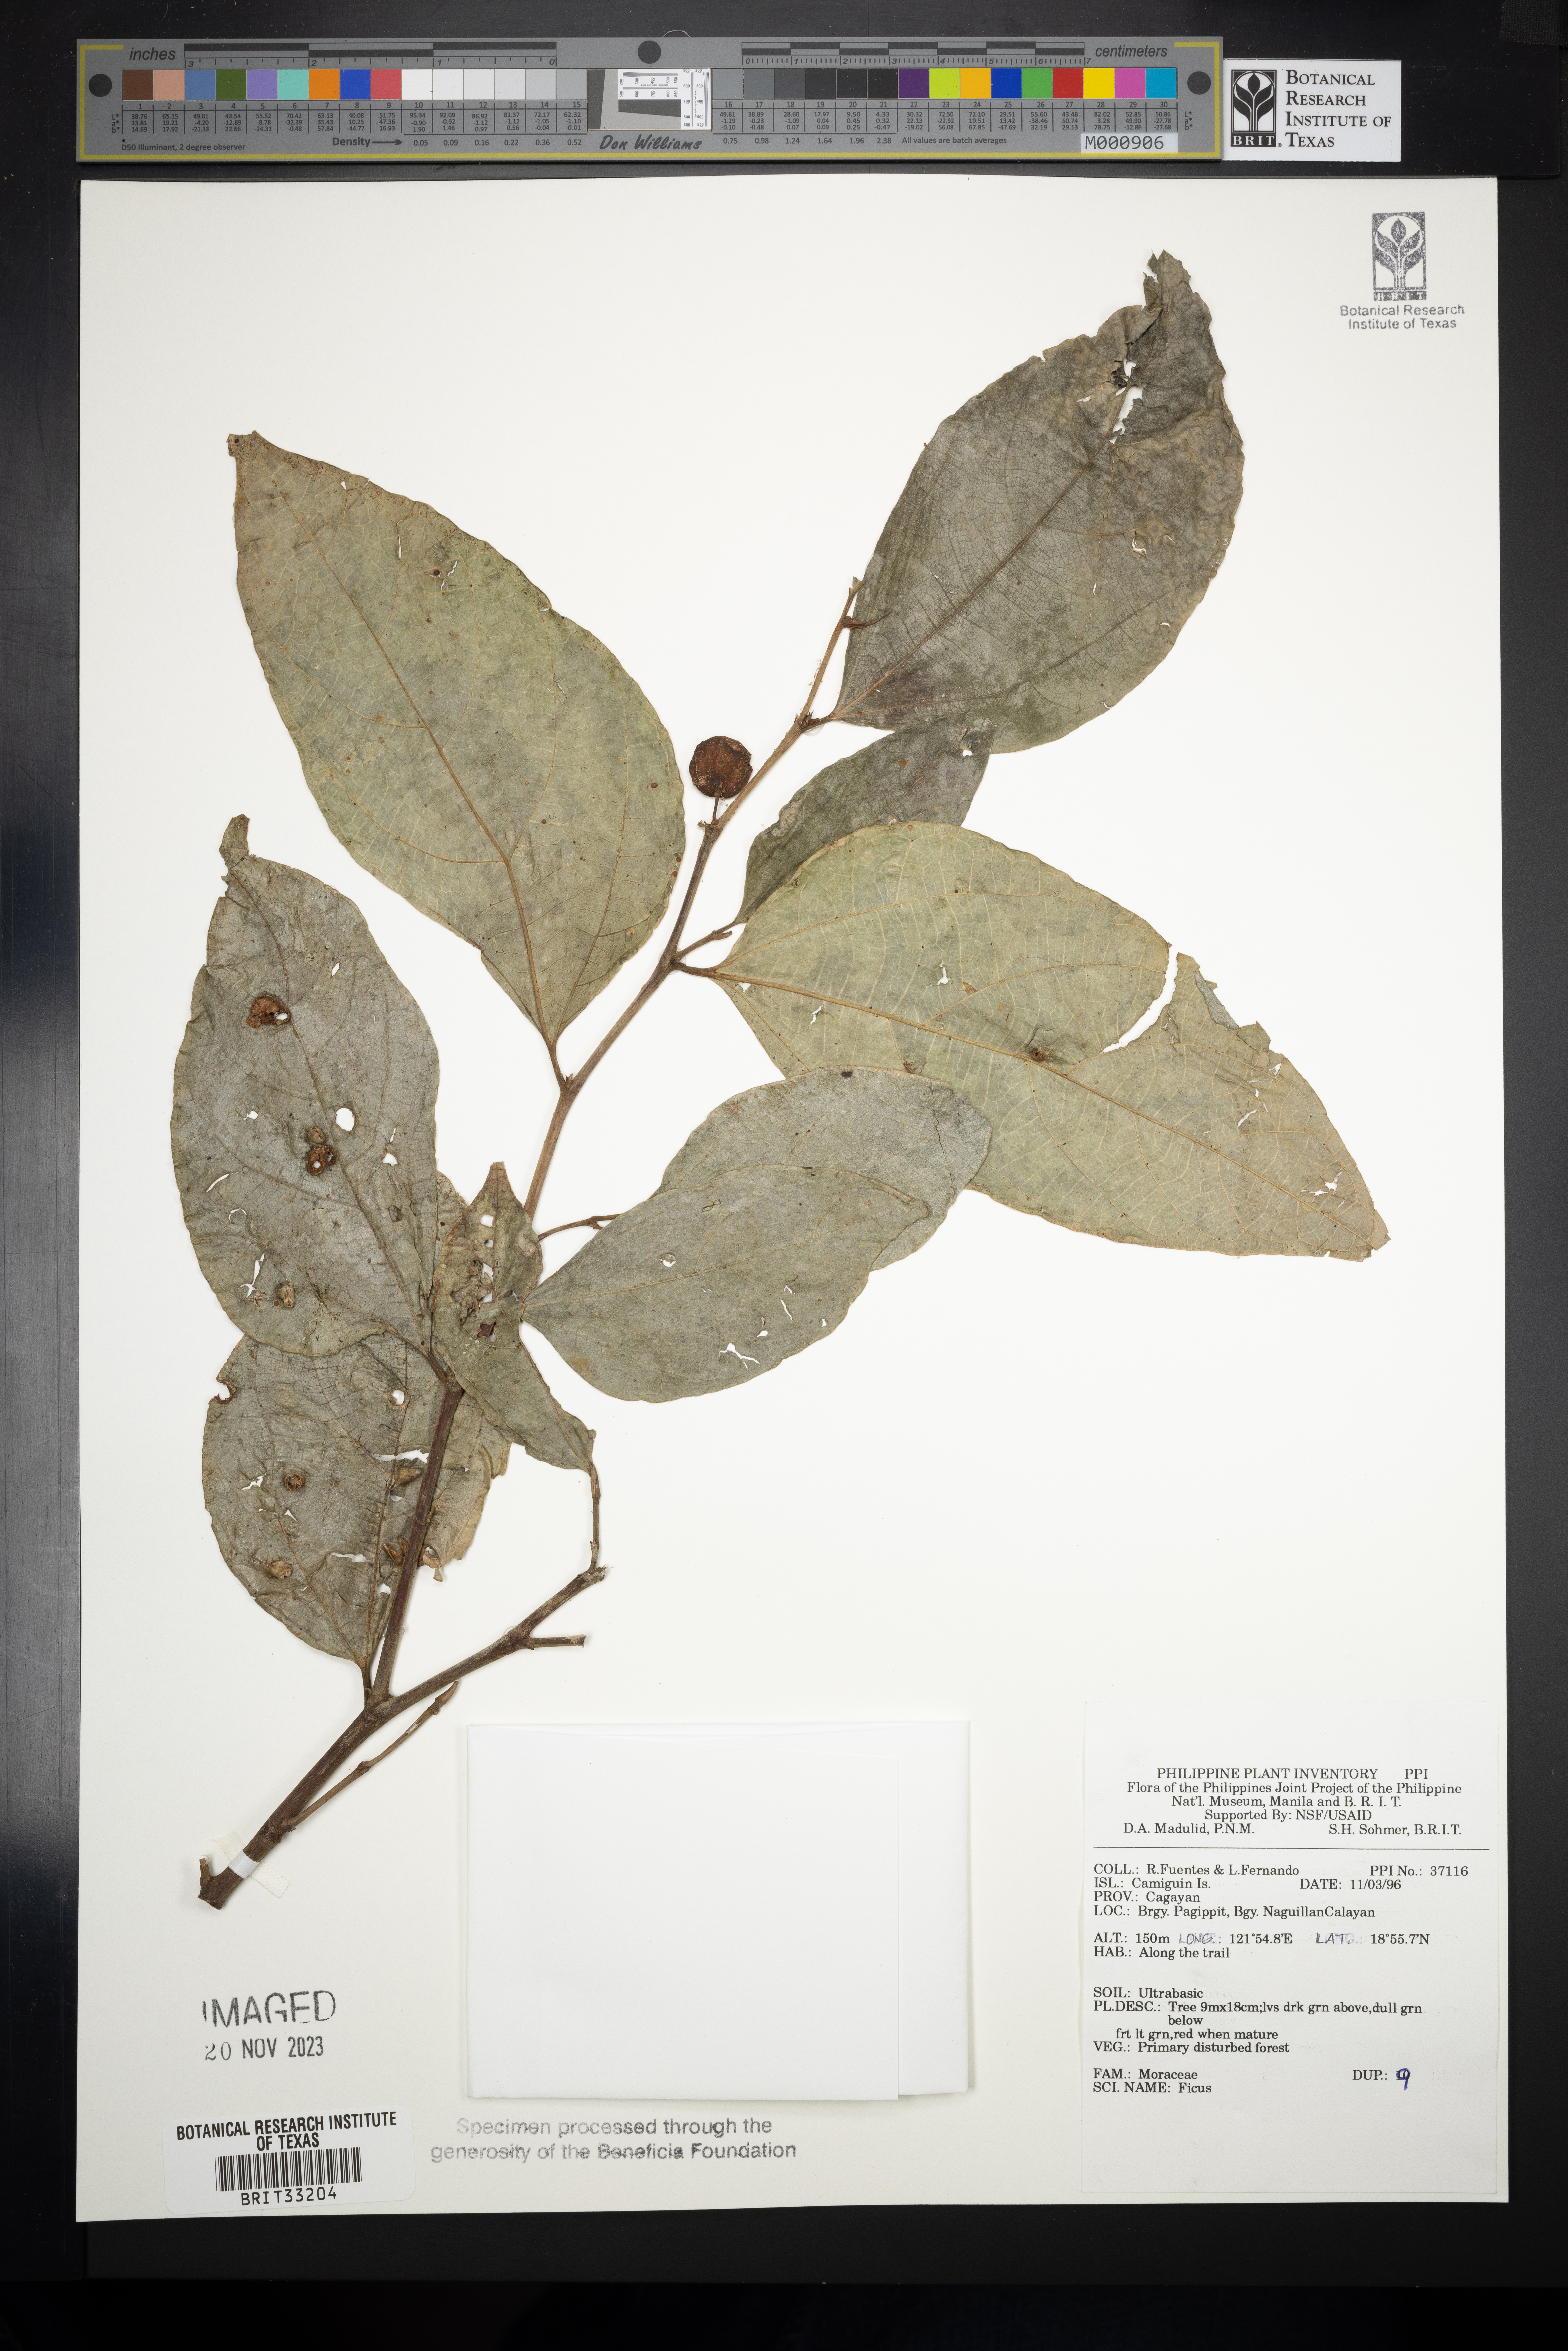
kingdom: Plantae
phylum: Tracheophyta
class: Magnoliopsida
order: Rosales
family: Moraceae
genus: Ficus
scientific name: Ficus
